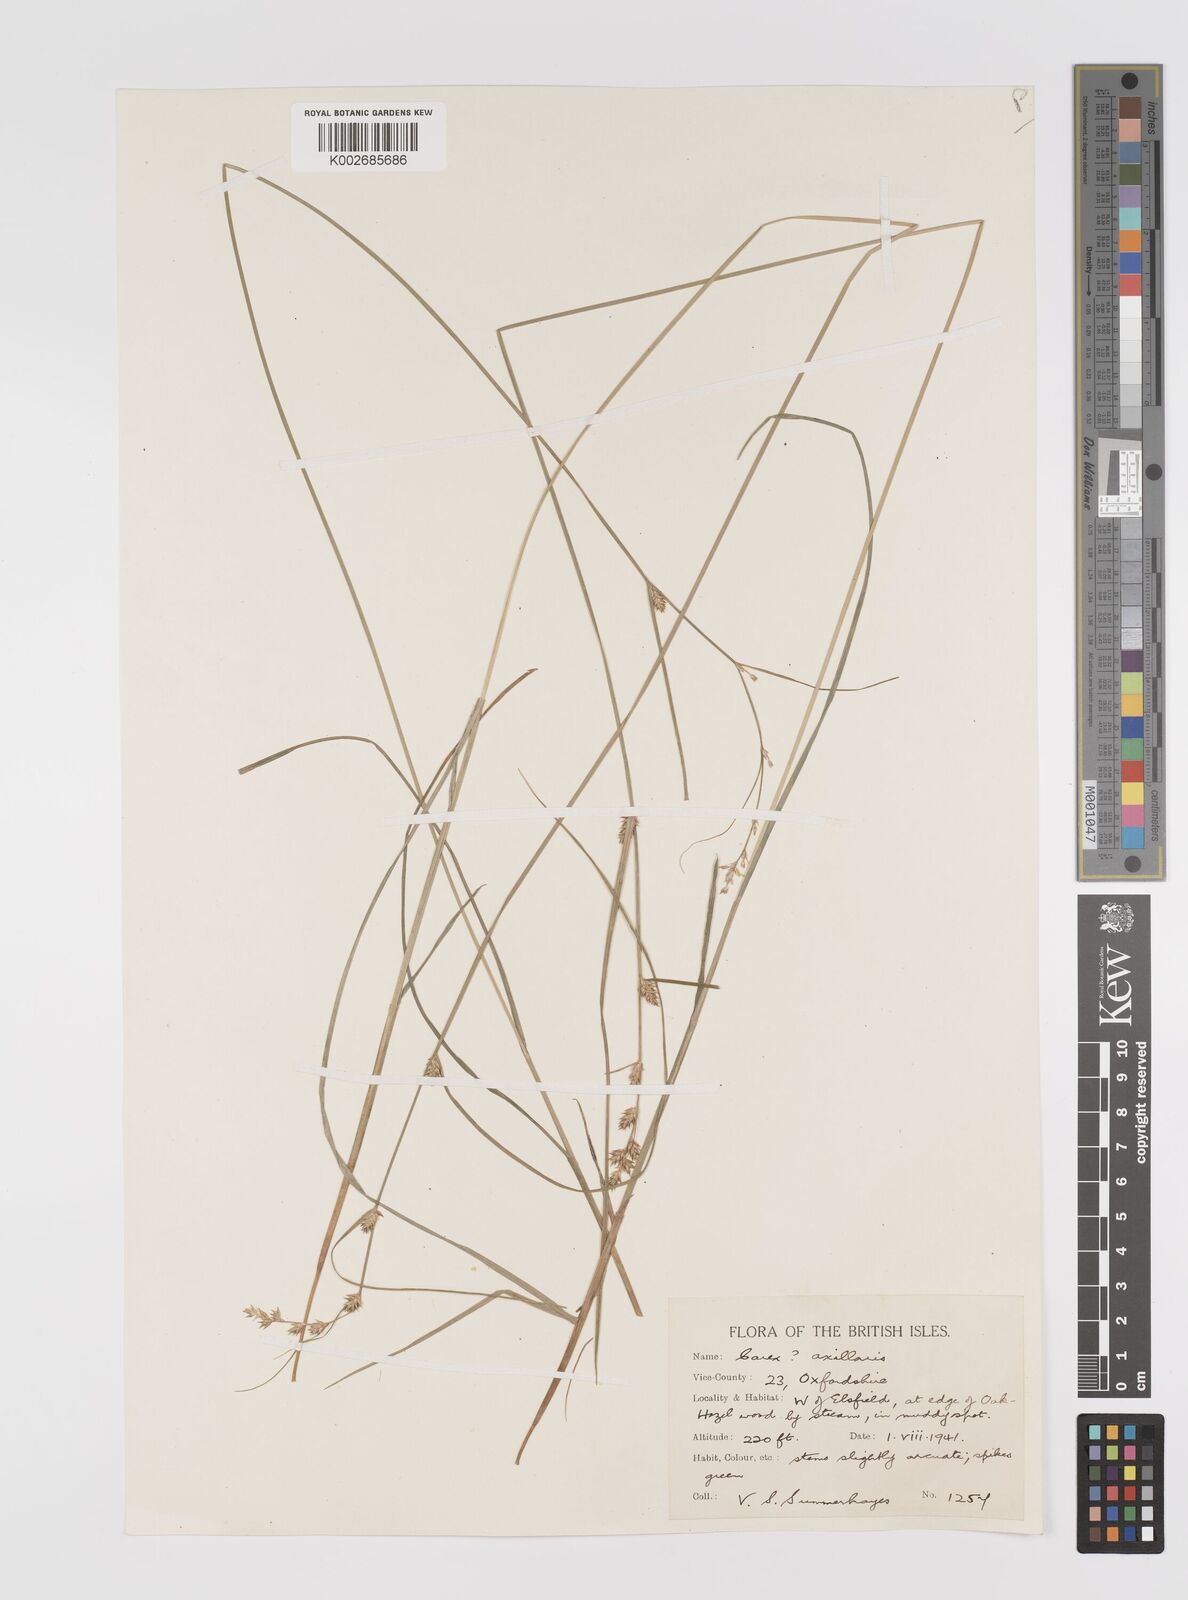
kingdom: Plantae
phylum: Tracheophyta
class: Liliopsida
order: Poales
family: Cyperaceae
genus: Carex
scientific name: Carex remota
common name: Remote sedge
